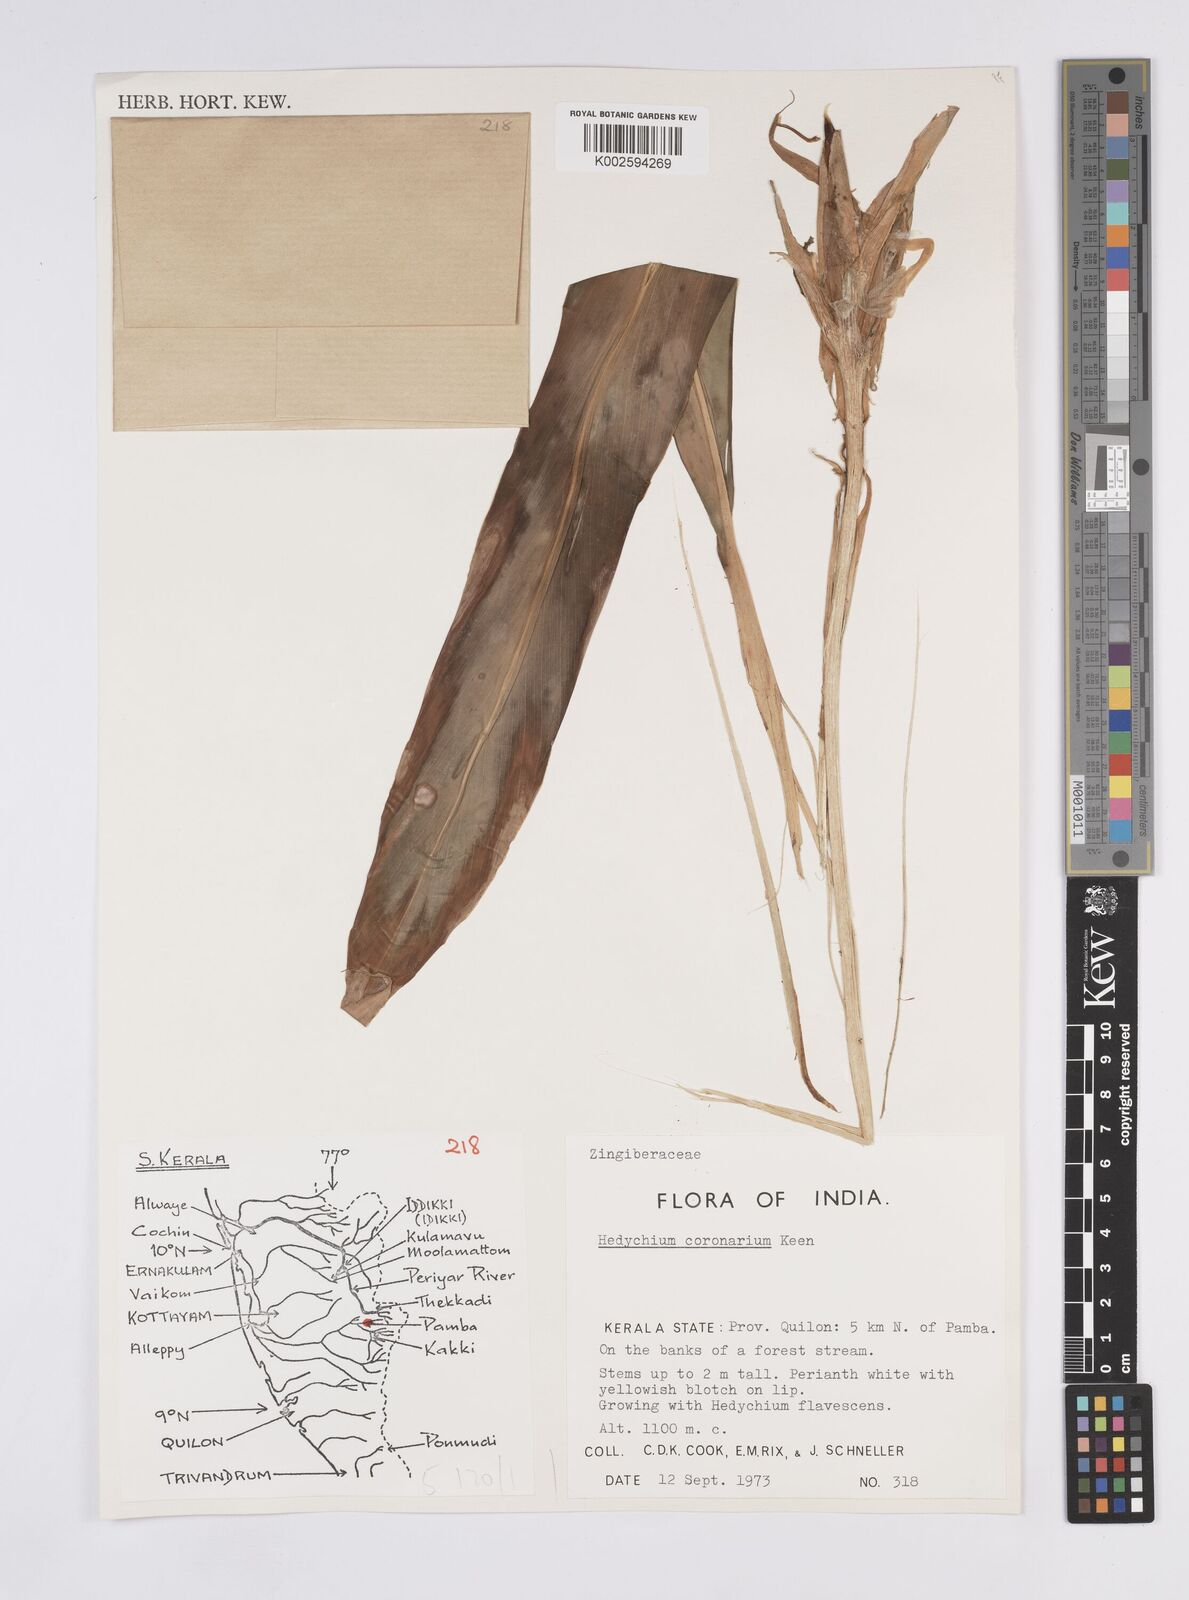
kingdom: Plantae
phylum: Tracheophyta
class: Liliopsida
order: Zingiberales
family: Zingiberaceae
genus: Hedychium
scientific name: Hedychium
